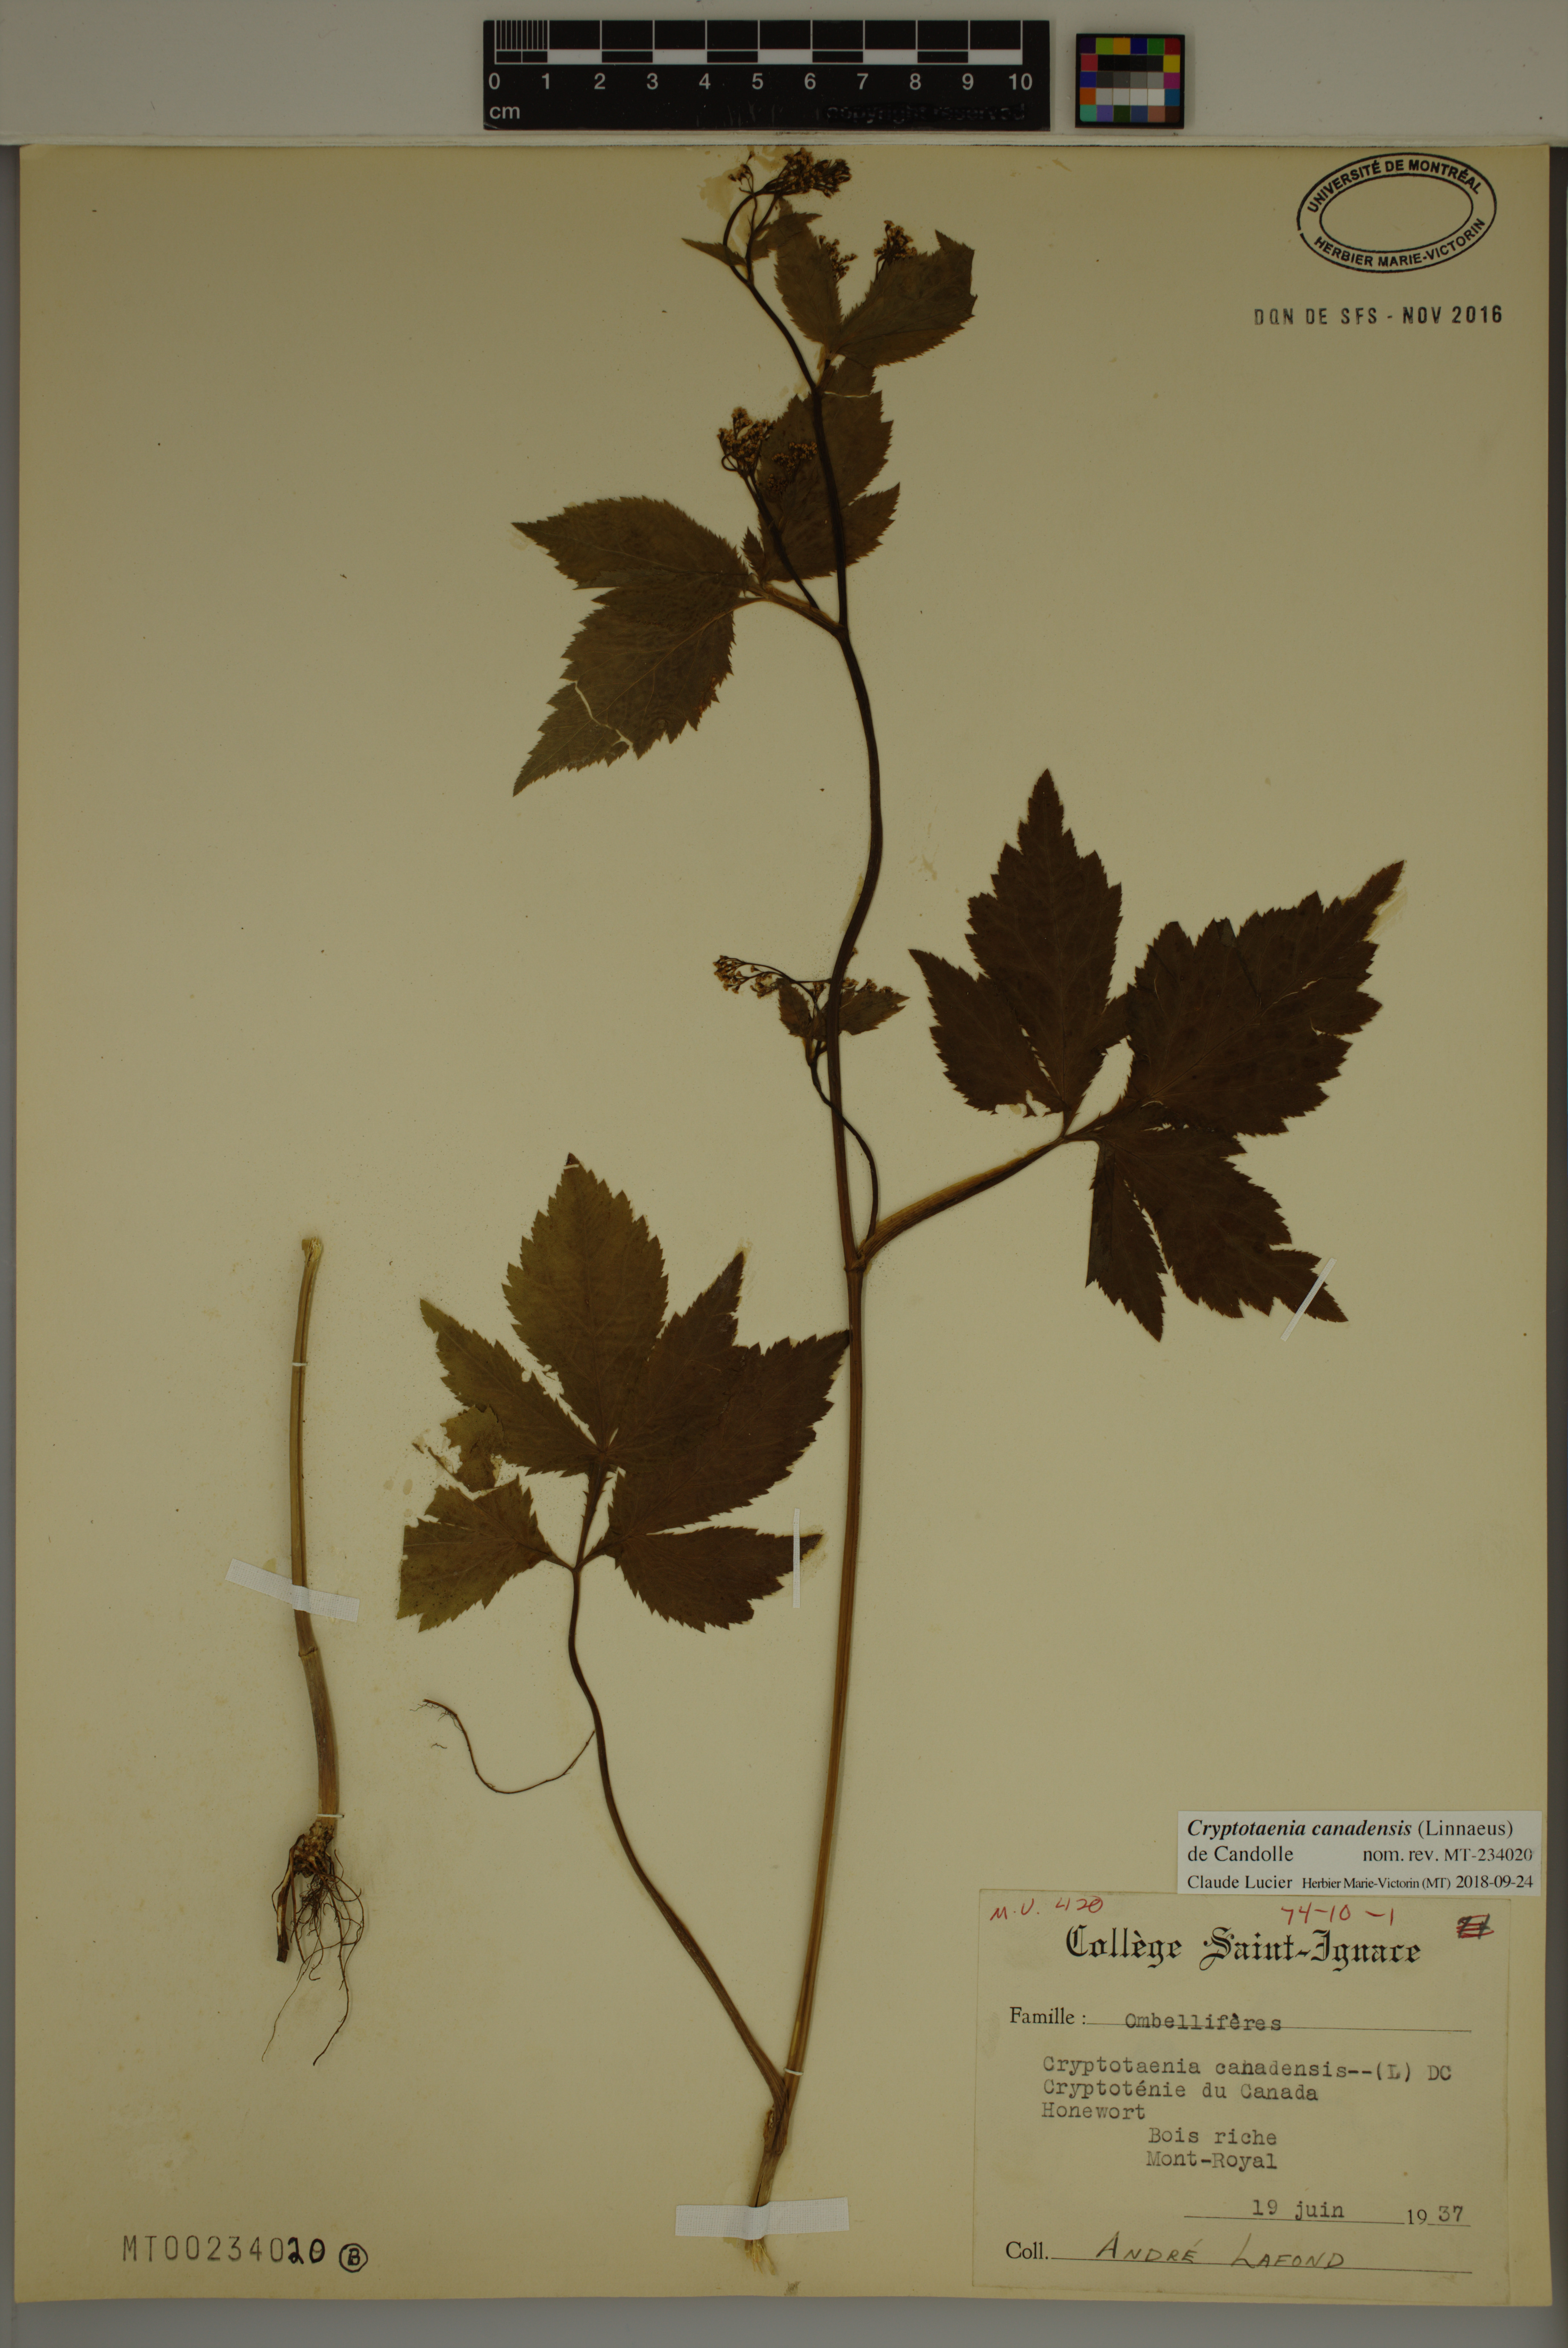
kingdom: Plantae
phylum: Tracheophyta
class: Magnoliopsida
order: Apiales
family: Apiaceae
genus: Cryptotaenia
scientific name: Cryptotaenia canadensis
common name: Honewort
